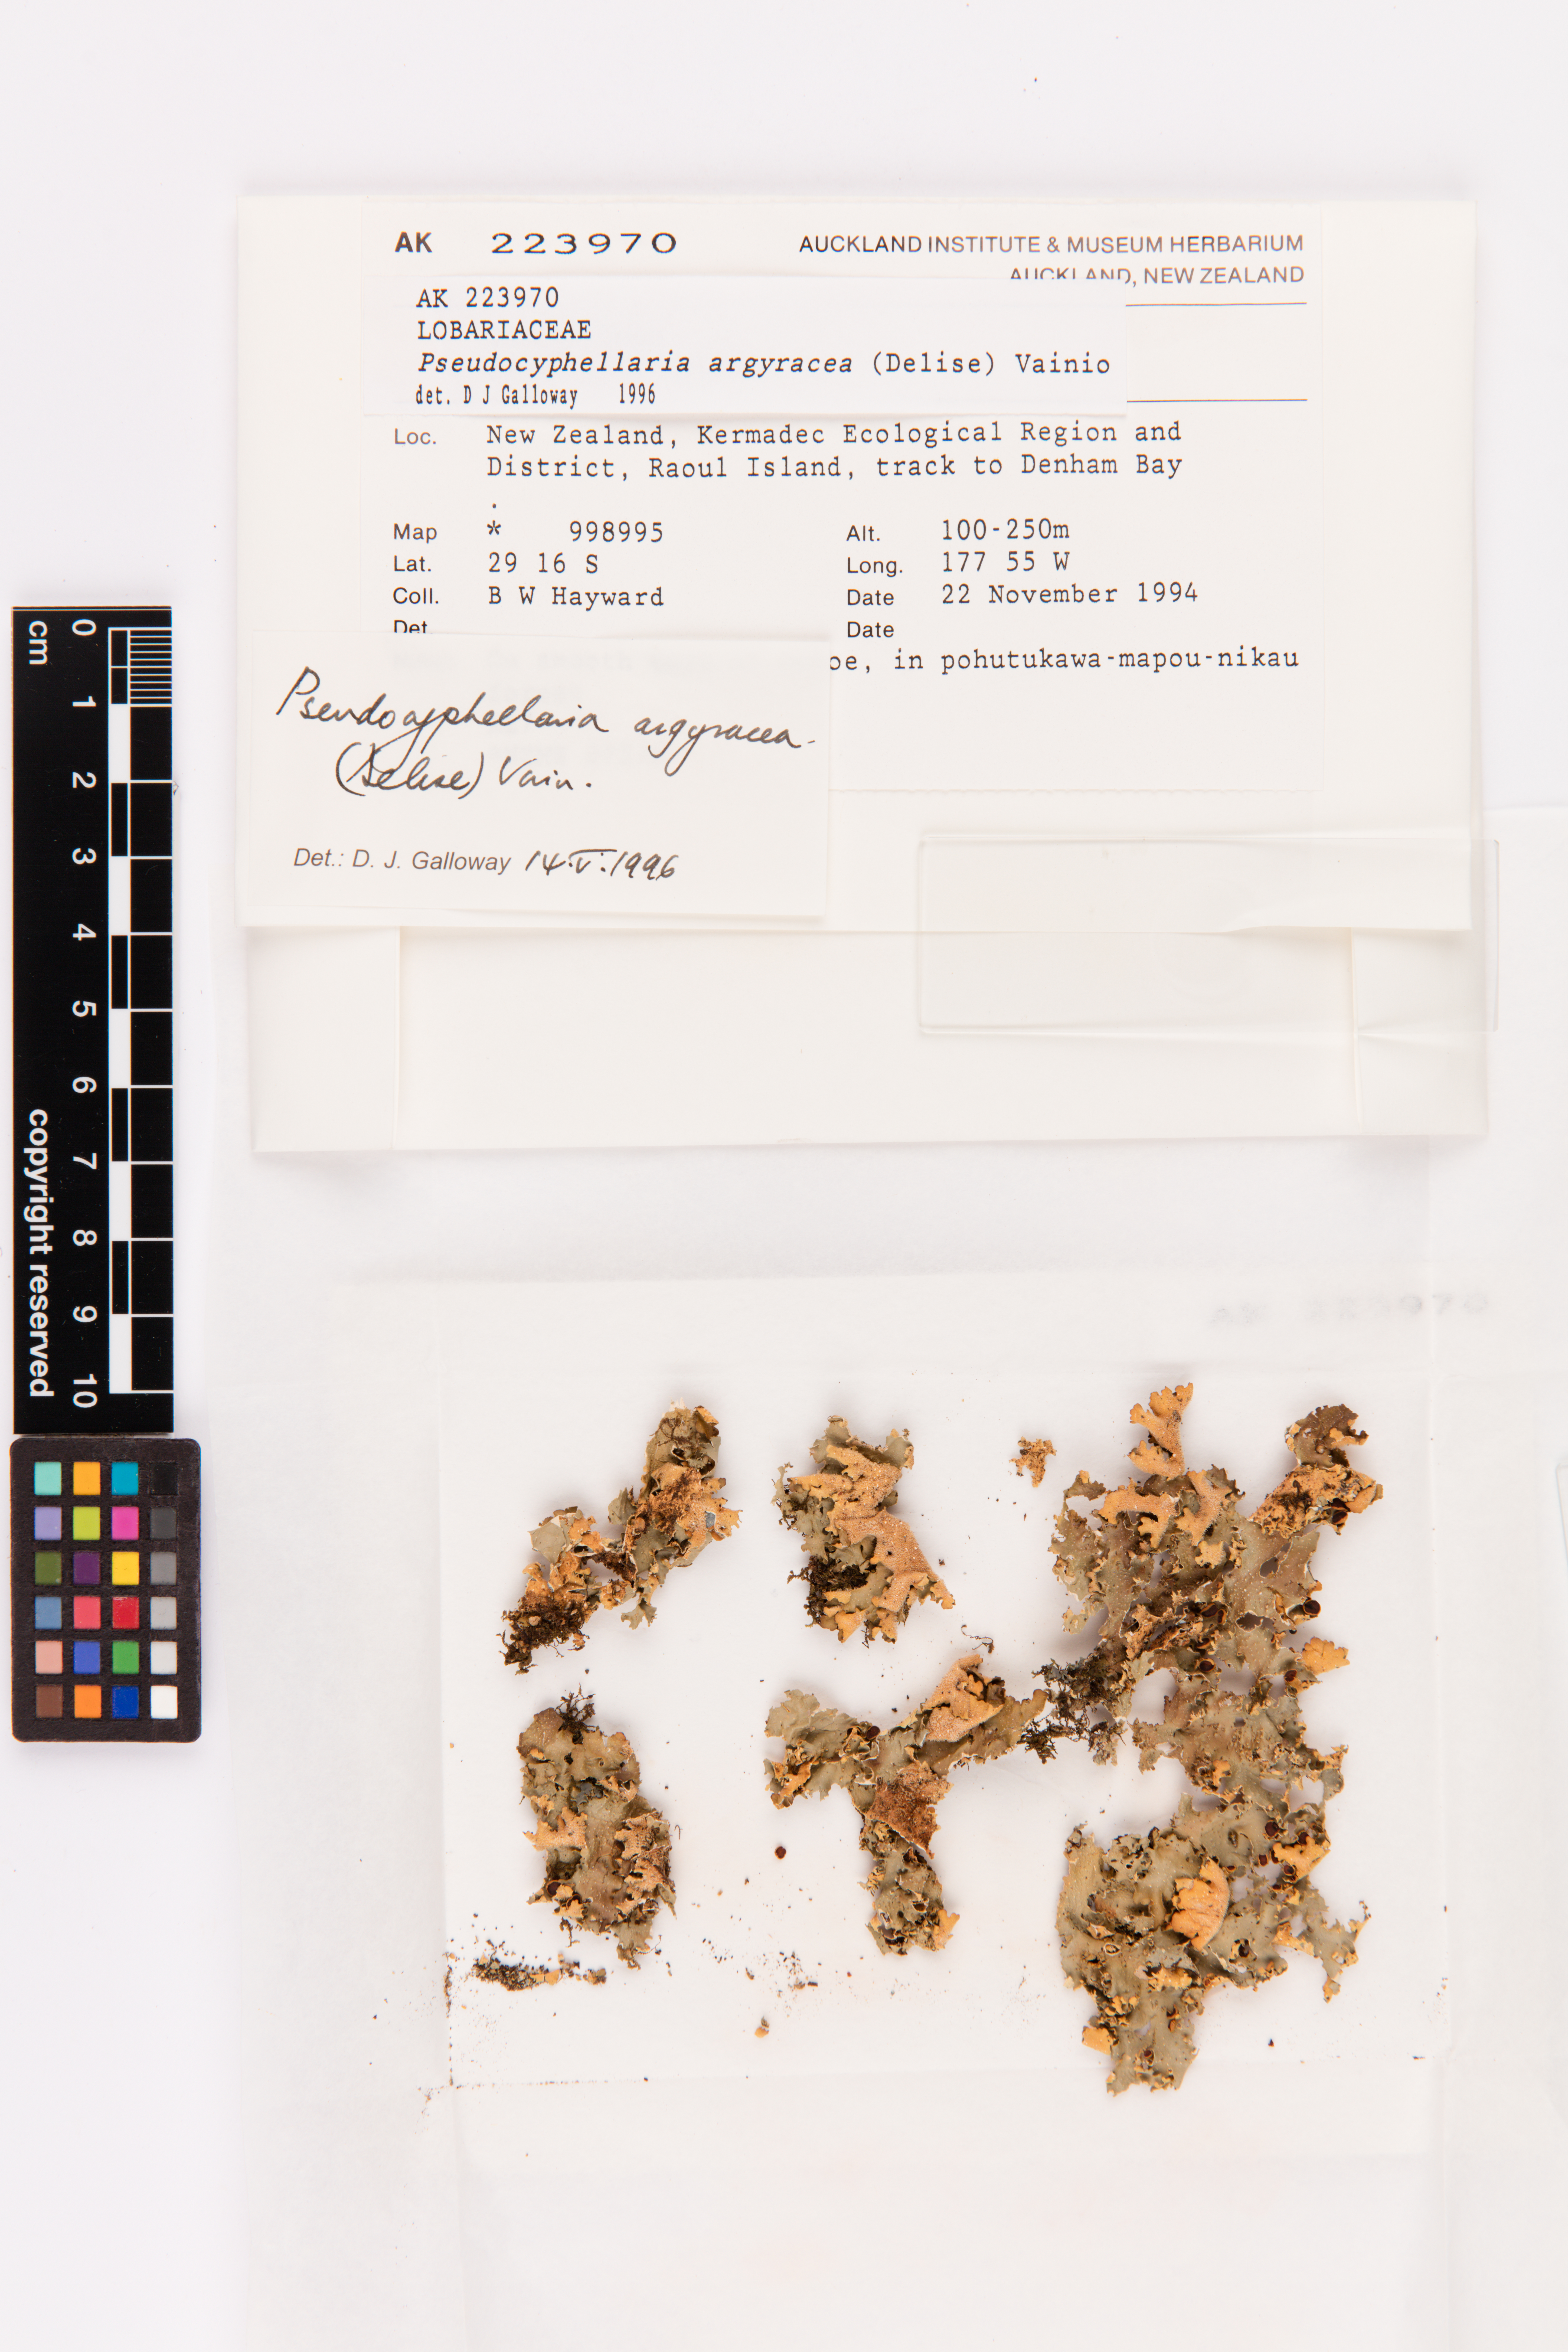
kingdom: Fungi
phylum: Ascomycota
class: Lecanoromycetes
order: Peltigerales
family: Lobariaceae
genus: Pseudocyphellaria
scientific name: Pseudocyphellaria argyracea
